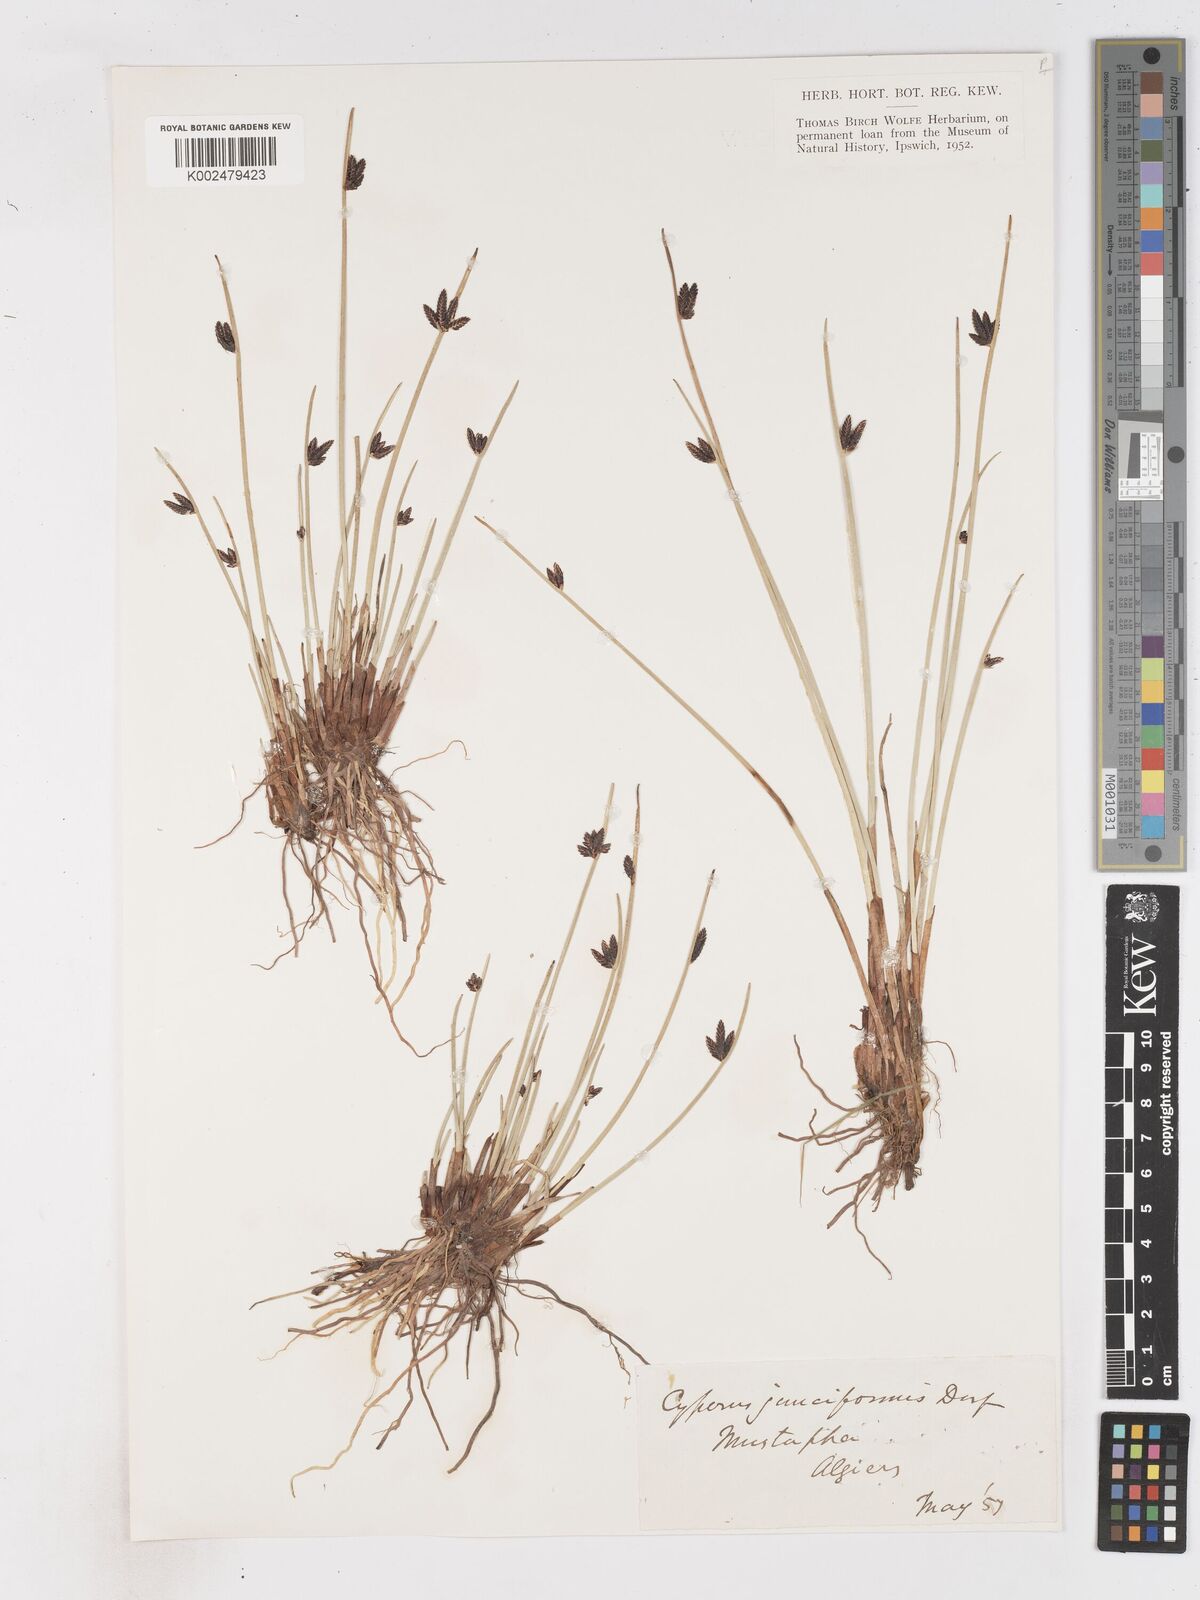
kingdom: Plantae
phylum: Tracheophyta
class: Liliopsida
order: Poales
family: Cyperaceae
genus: Cyperus
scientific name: Cyperus laevigatus
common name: Smooth flat sedge
